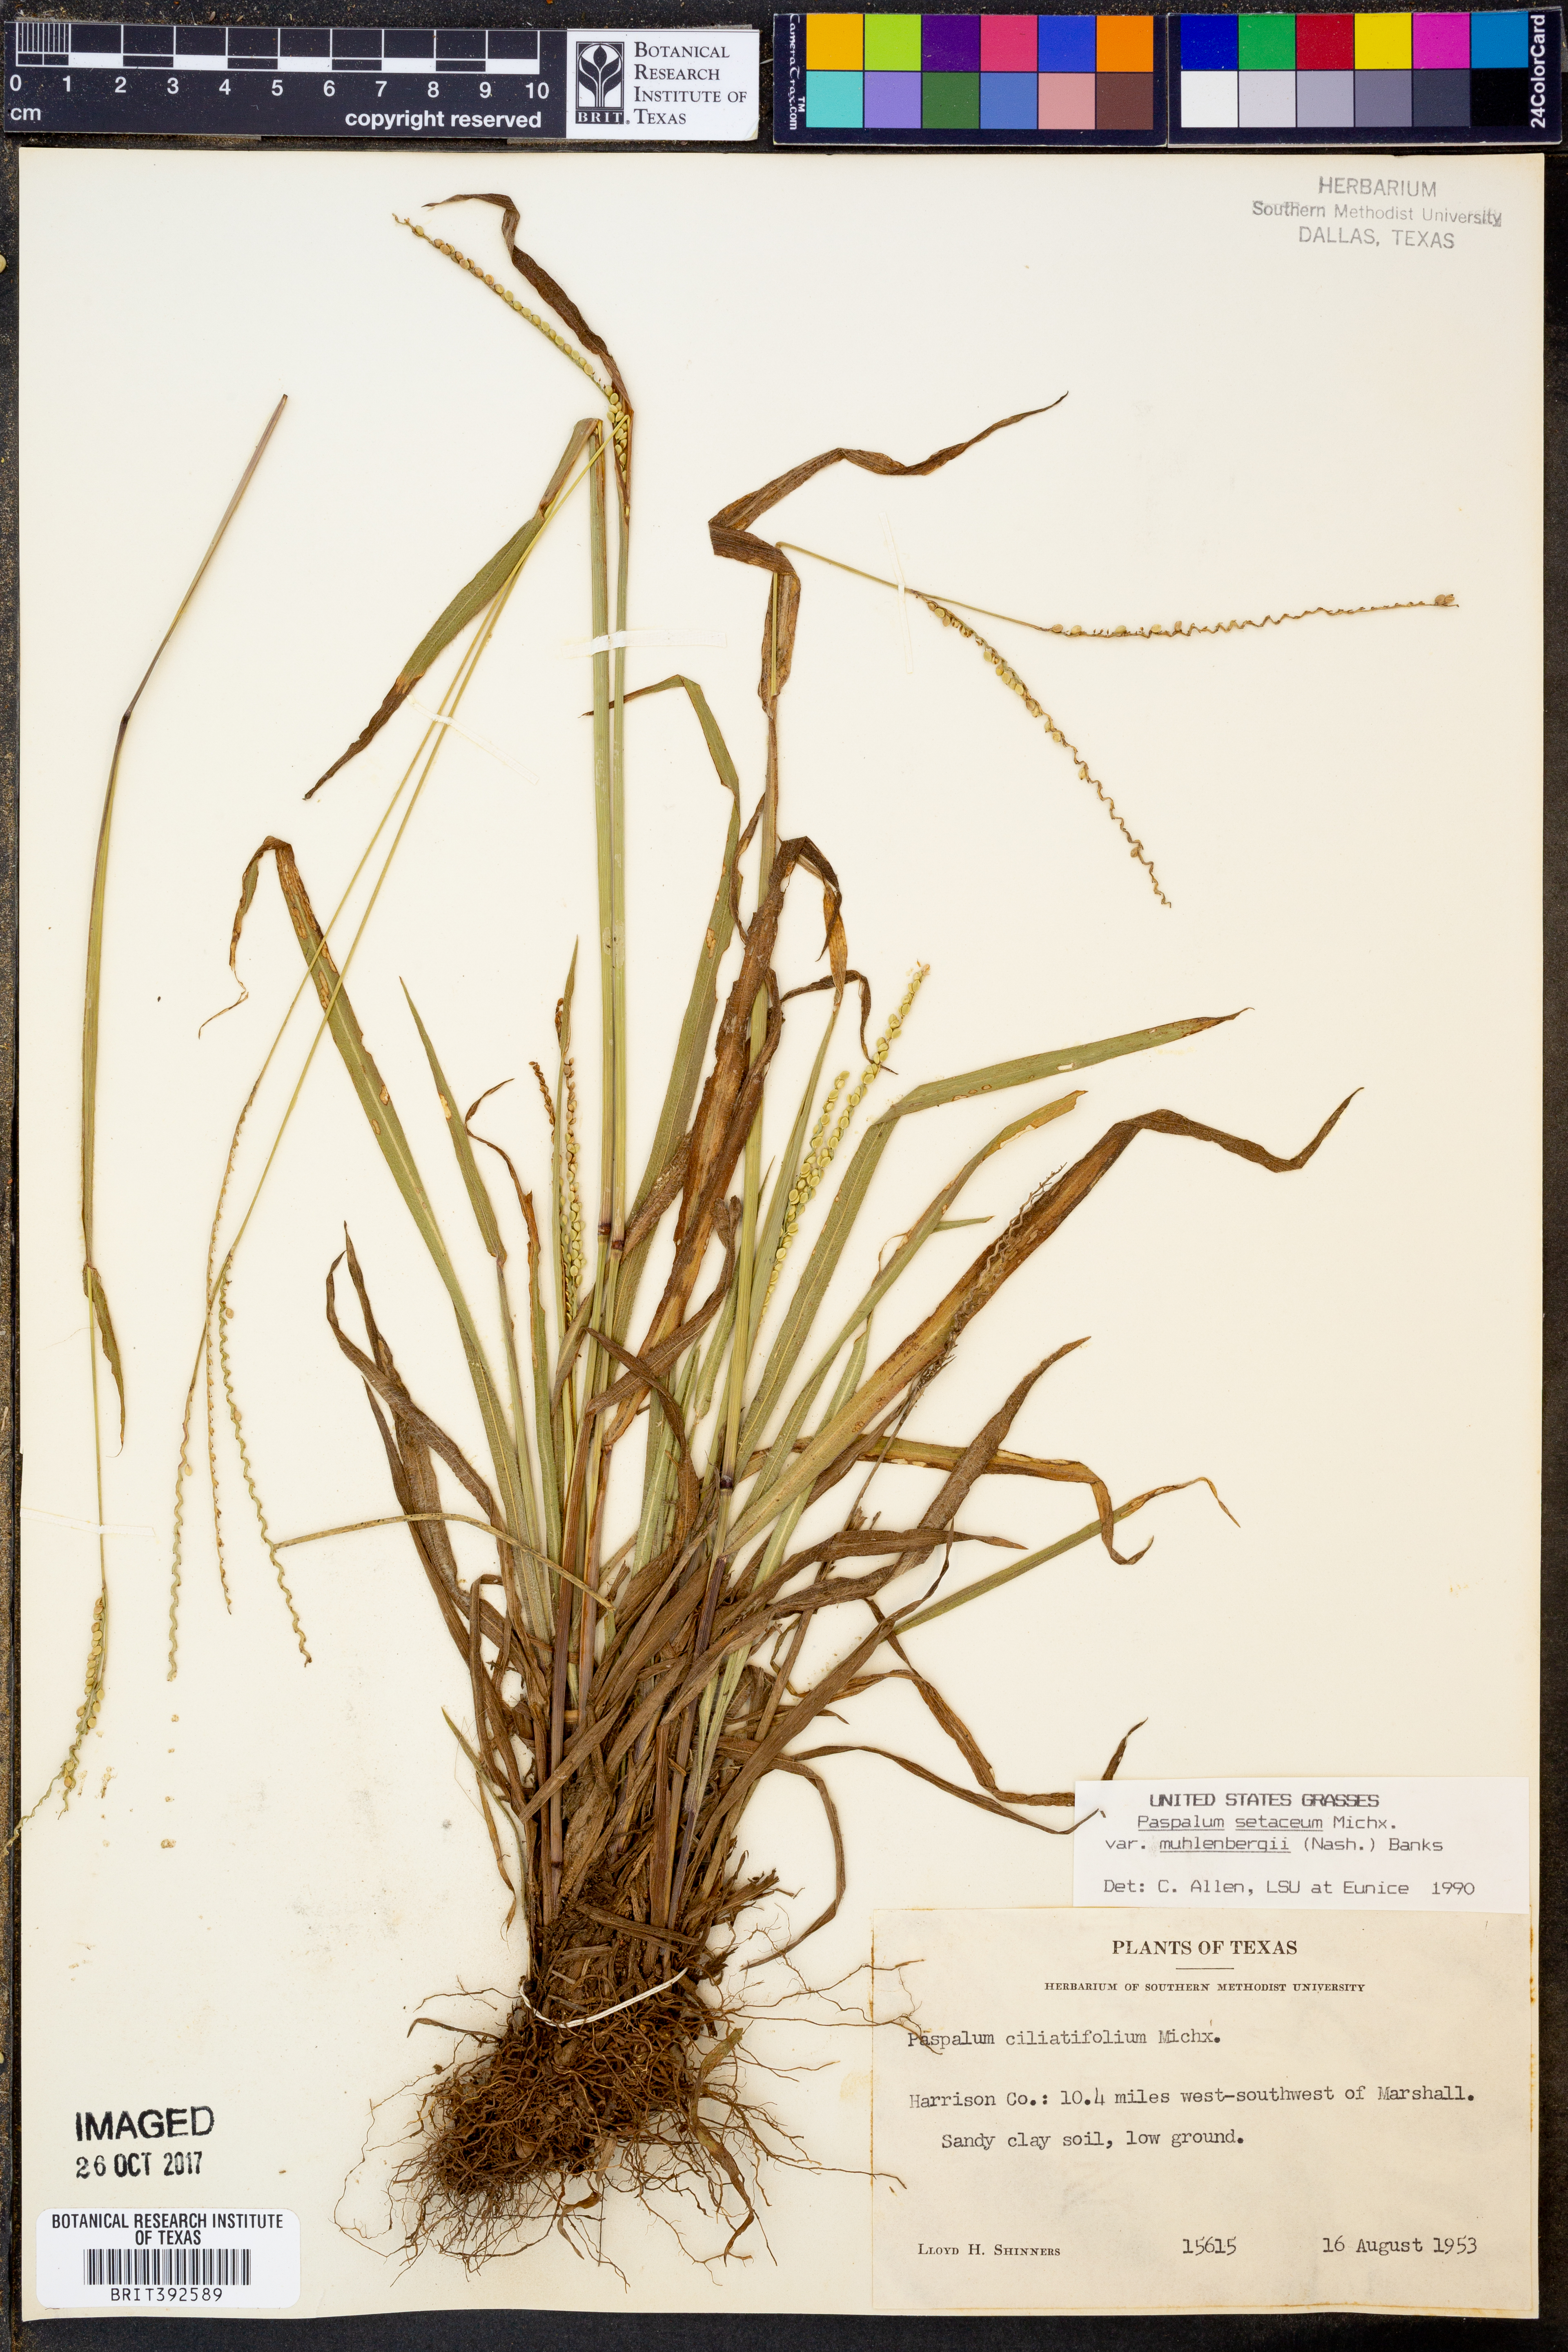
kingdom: Plantae
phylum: Tracheophyta
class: Liliopsida
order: Poales
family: Poaceae
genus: Paspalum
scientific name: Paspalum setaceum
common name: Slender paspalum
